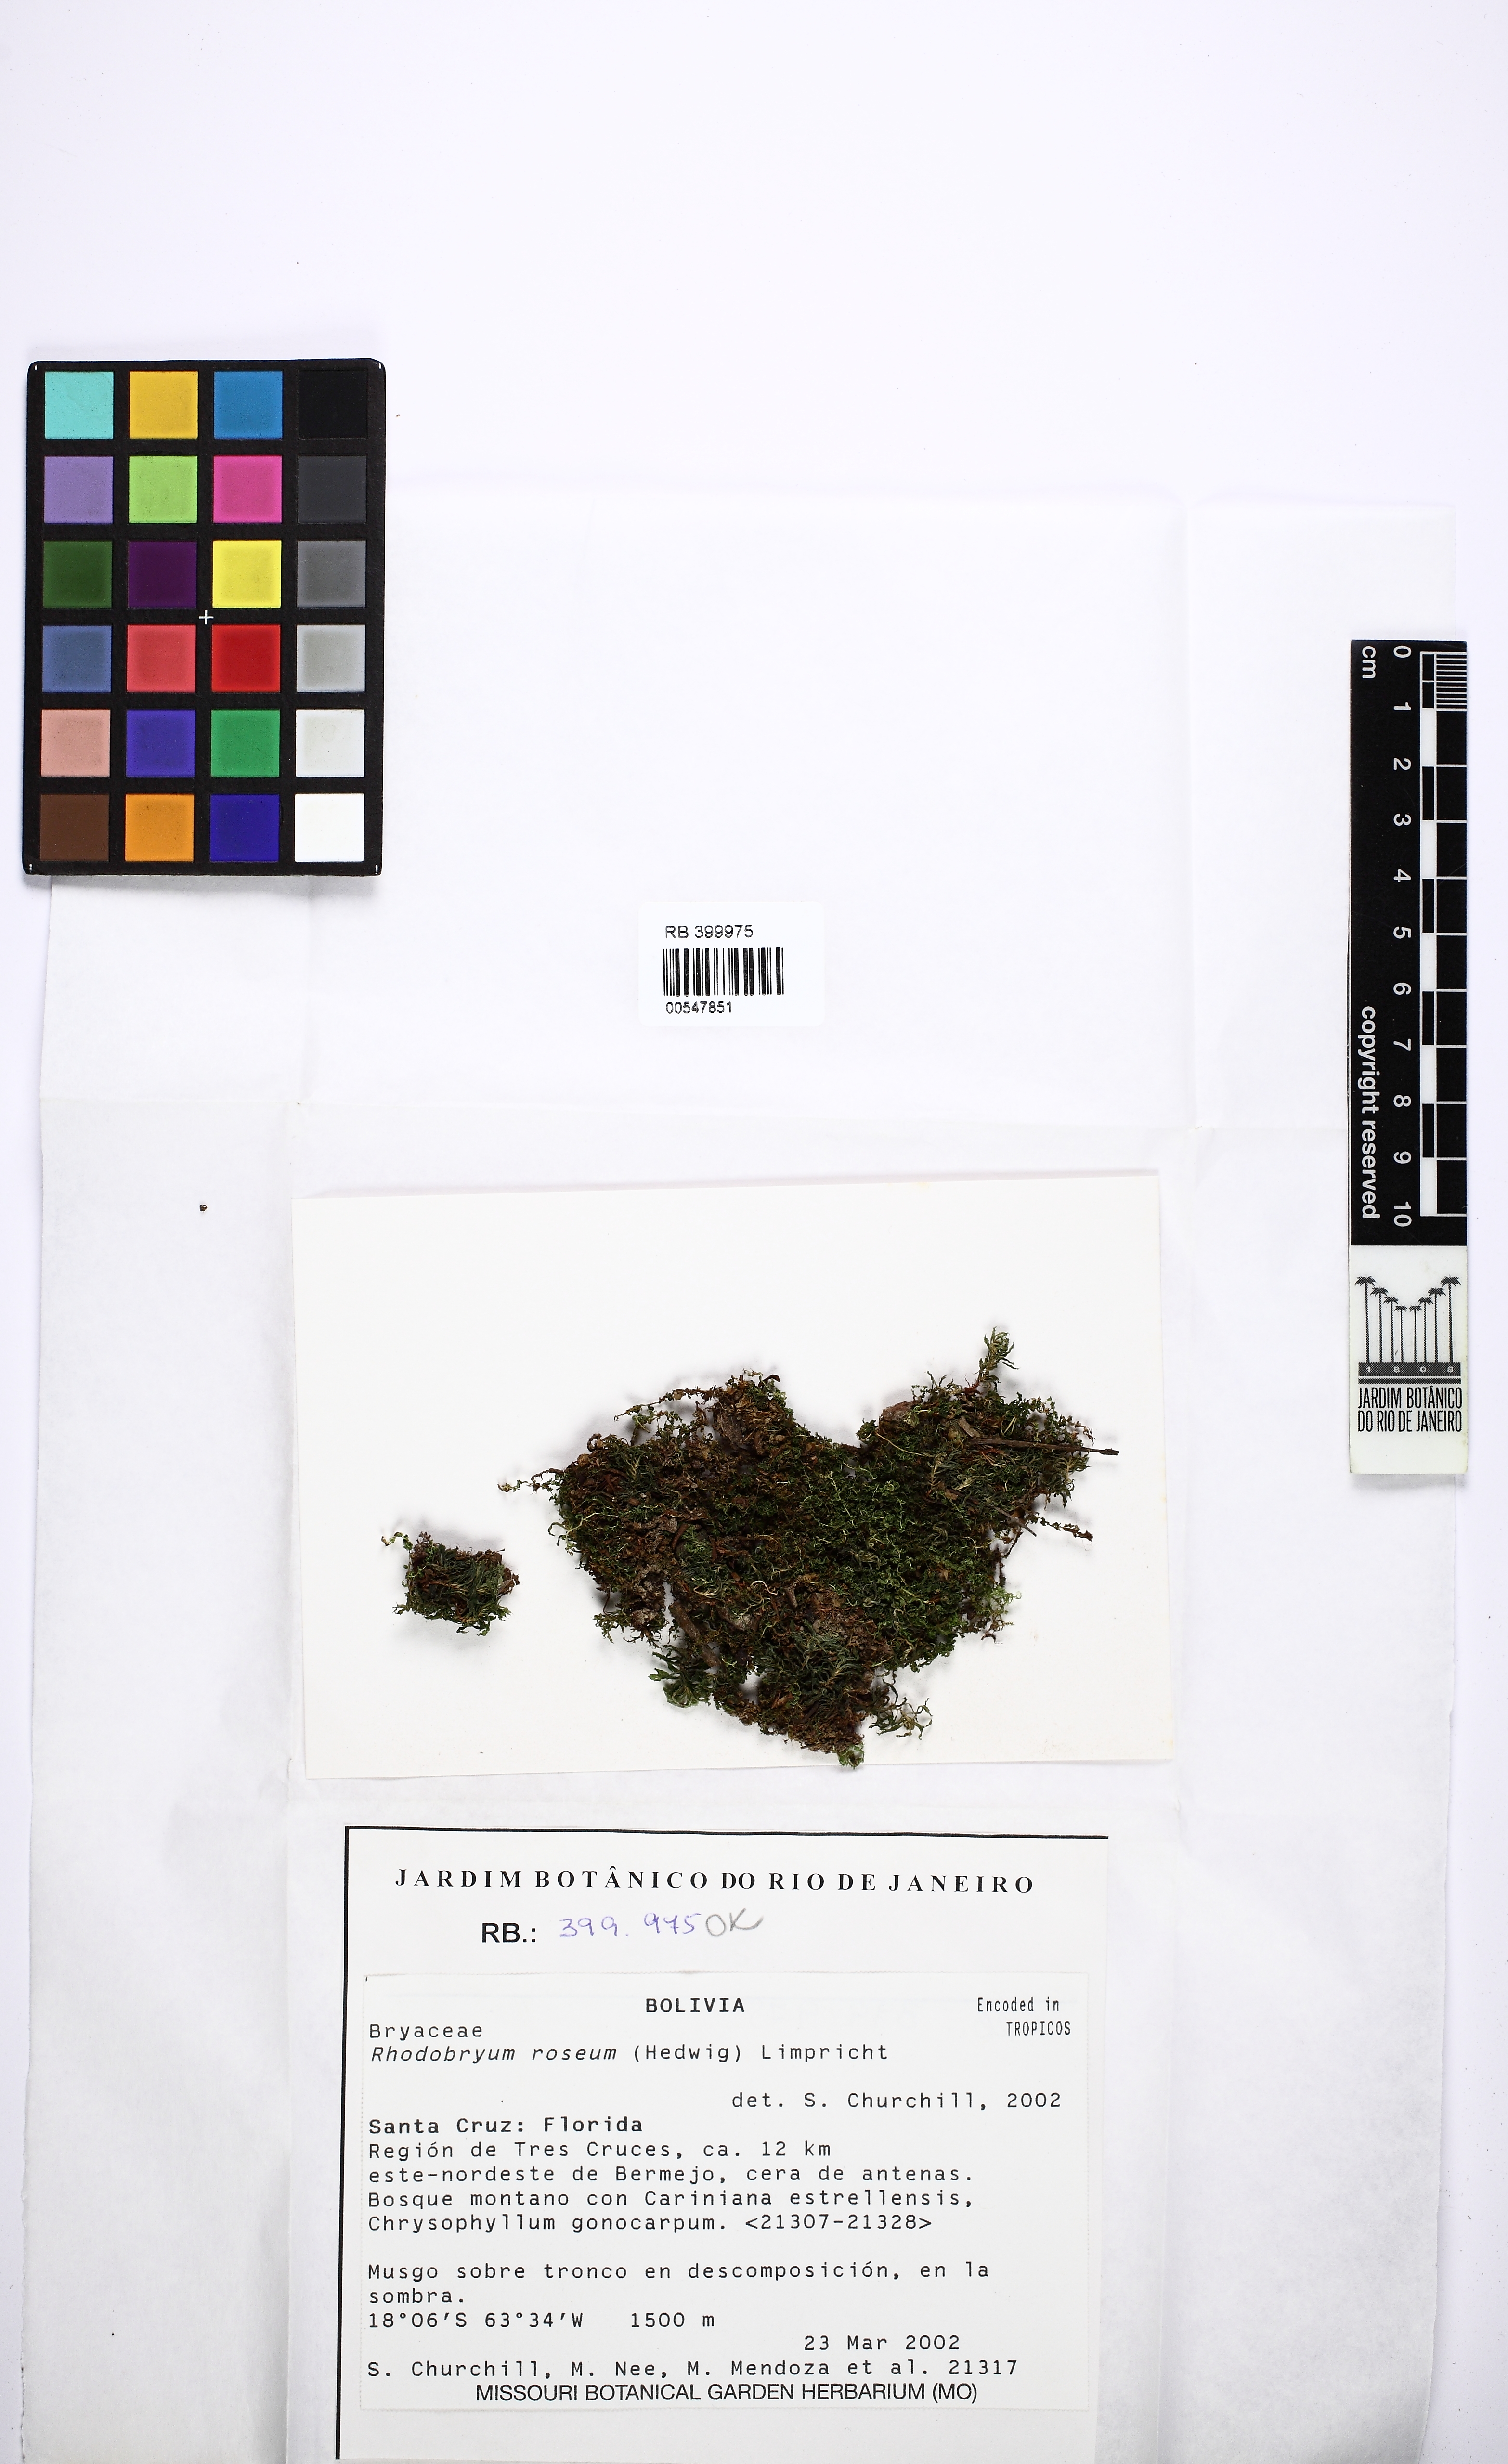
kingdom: Plantae
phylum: Bryophyta
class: Bryopsida
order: Bryales
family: Bryaceae
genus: Bryum
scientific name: Bryum procerum
